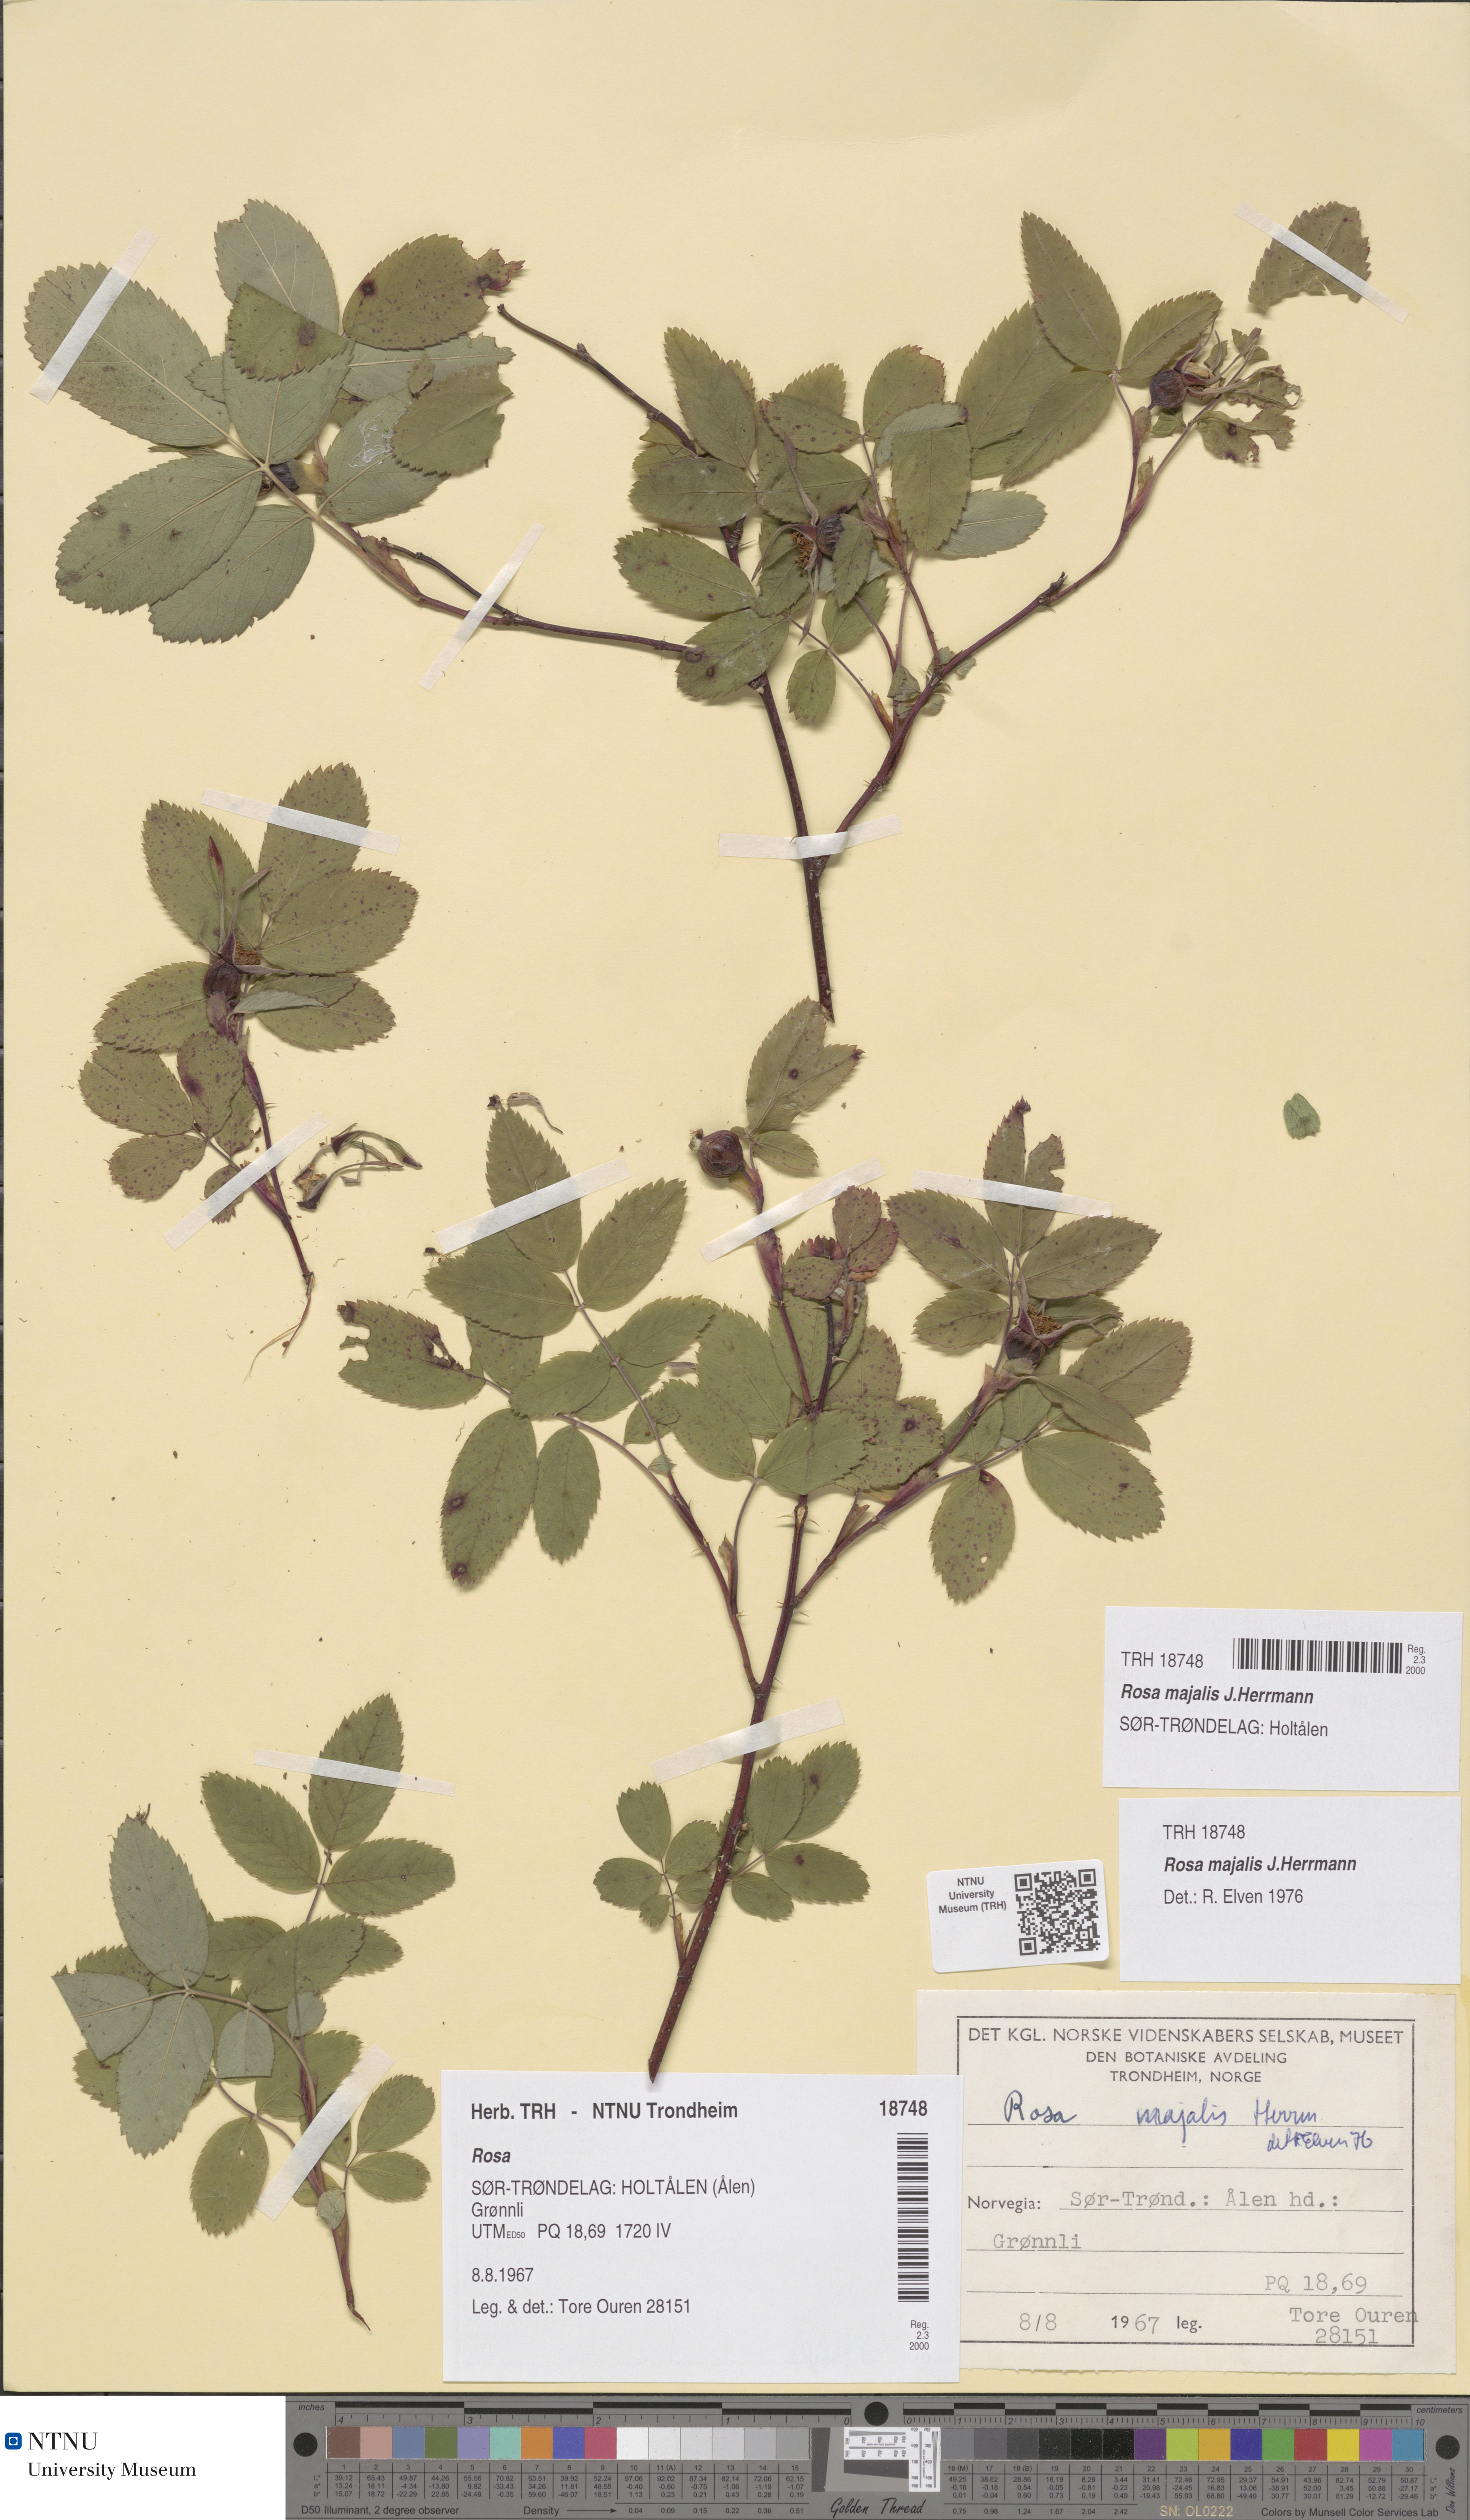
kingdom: Plantae
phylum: Tracheophyta
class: Magnoliopsida
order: Rosales
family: Rosaceae
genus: Rosa
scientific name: Rosa majalis
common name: Cinnamon rose
